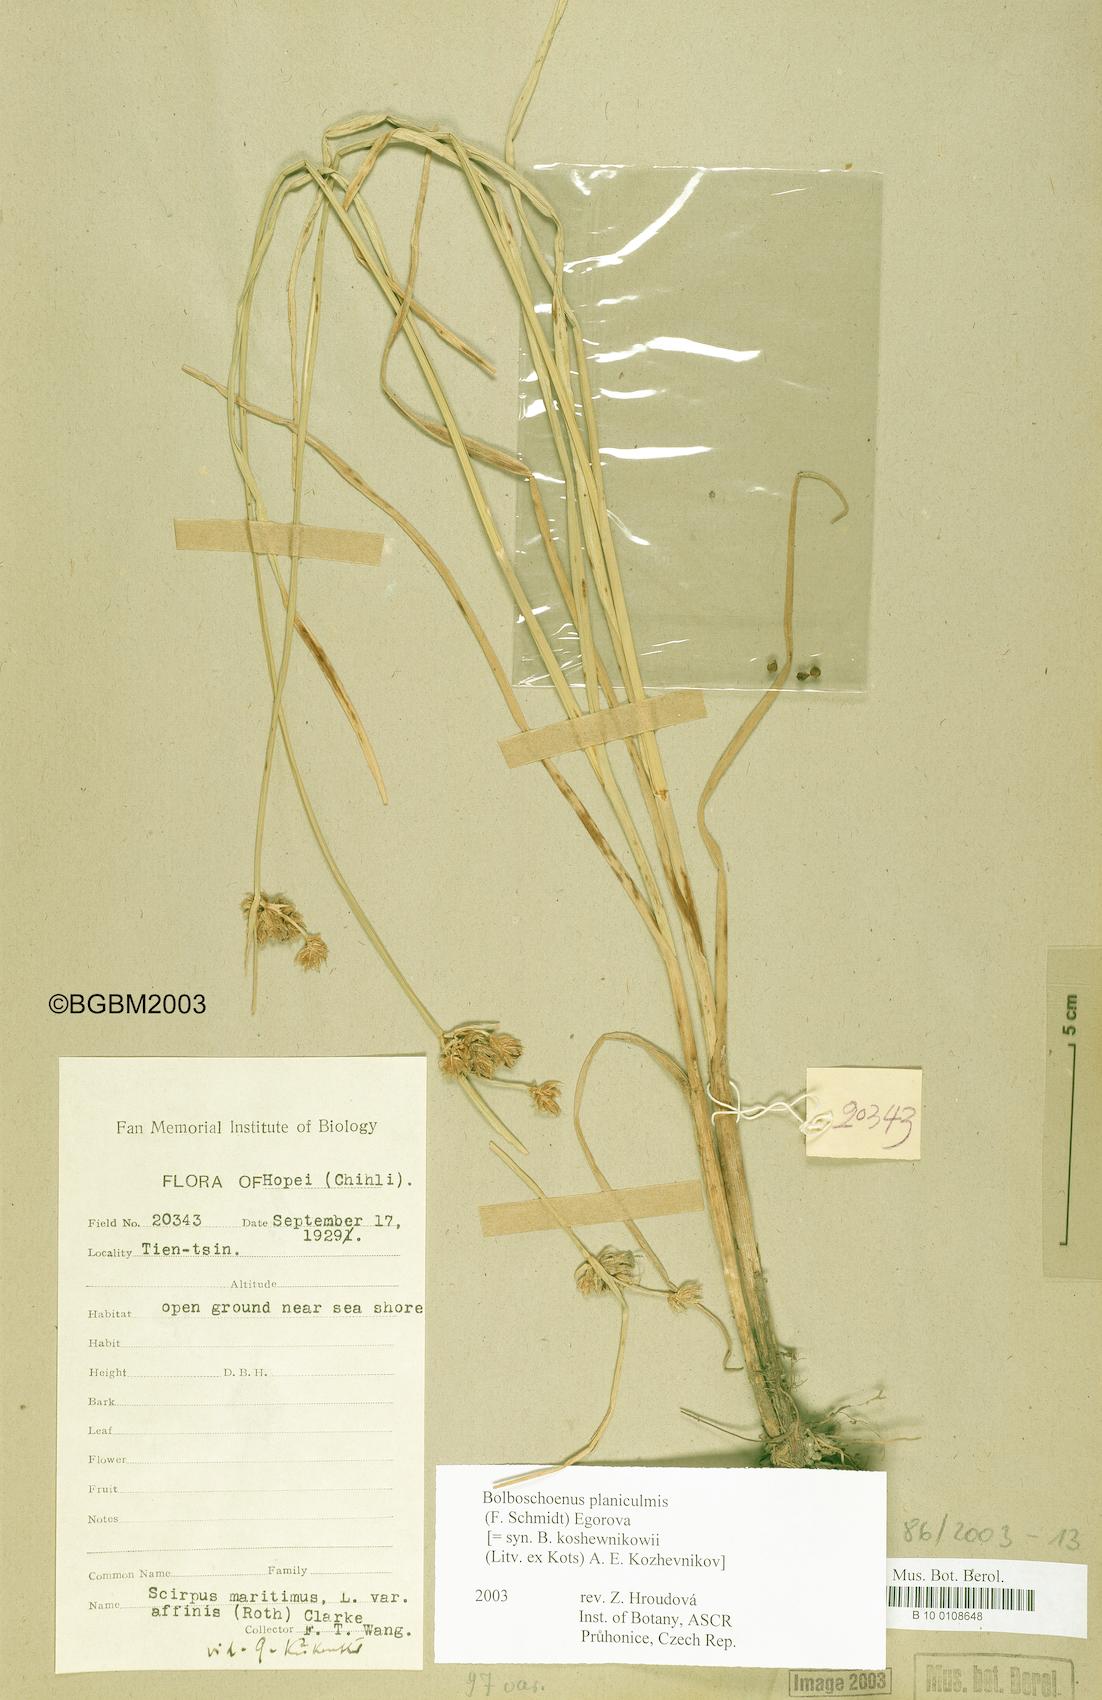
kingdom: Plantae
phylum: Tracheophyta
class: Liliopsida
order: Poales
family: Cyperaceae
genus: Bolboschoenus
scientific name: Bolboschoenus planiculmis
